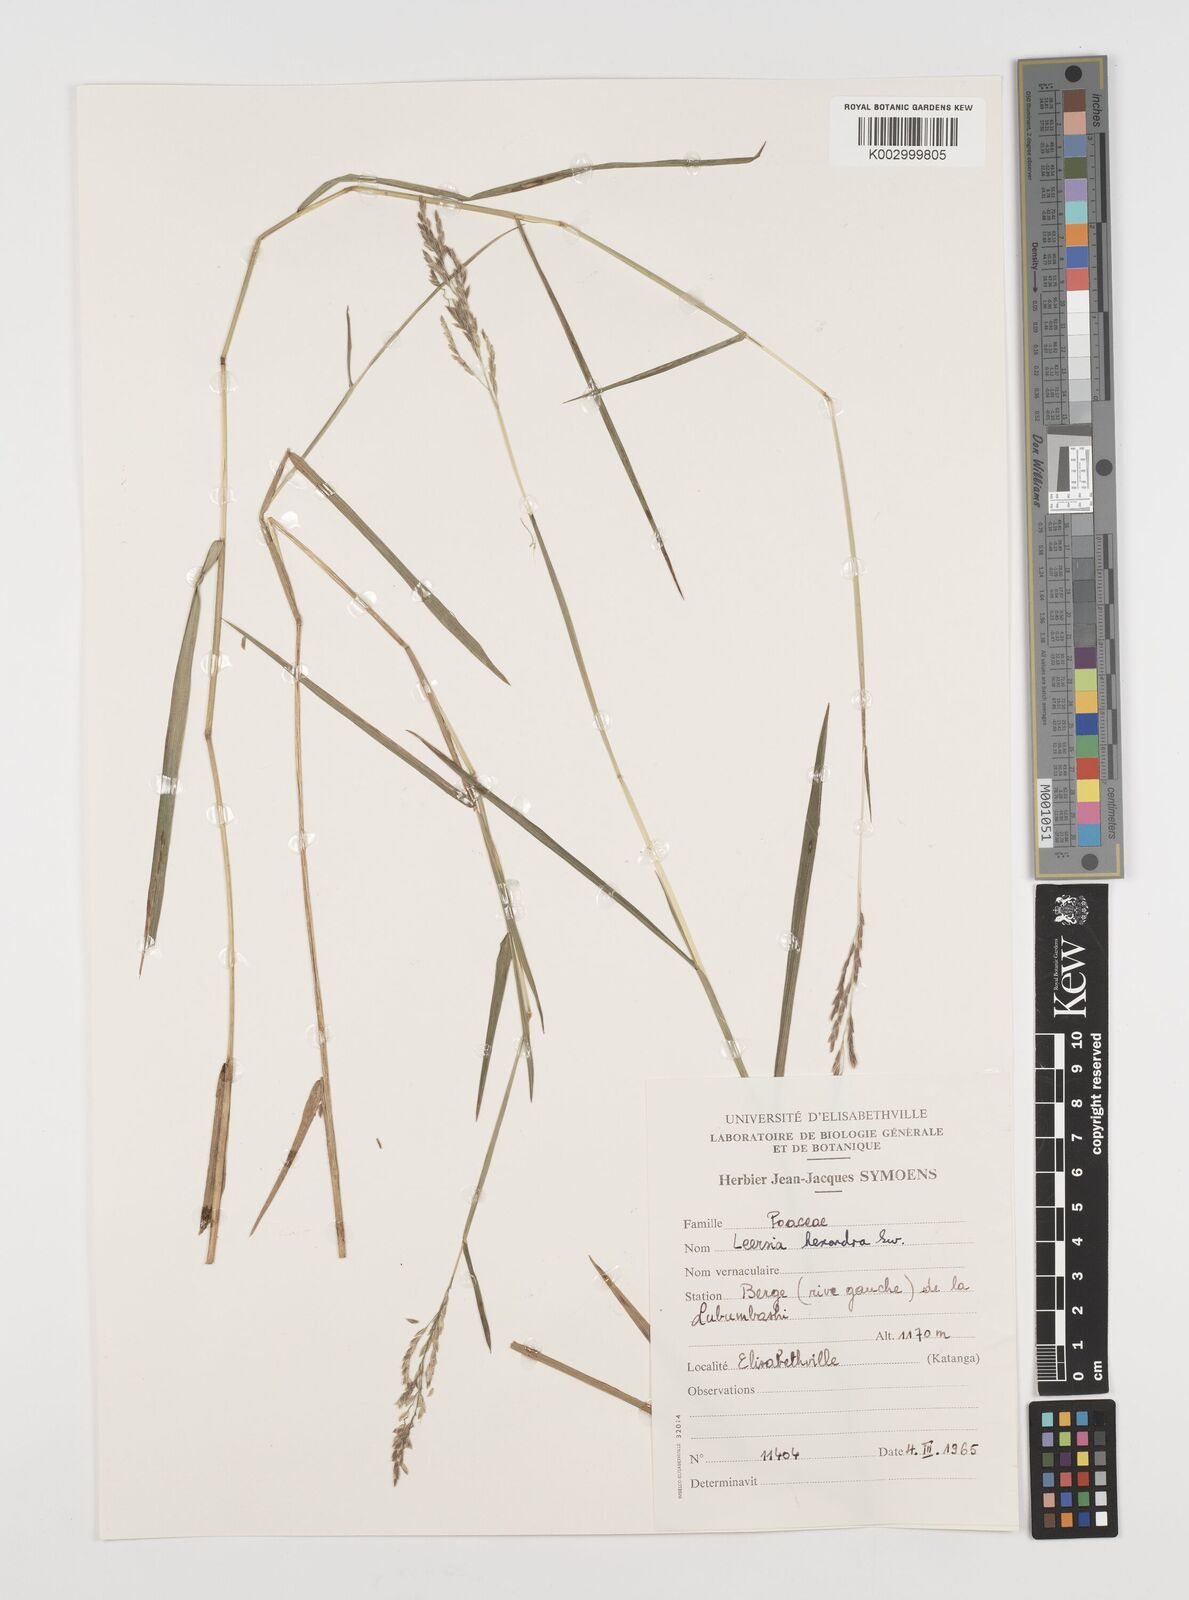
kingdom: Plantae
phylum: Tracheophyta
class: Liliopsida
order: Poales
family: Poaceae
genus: Leersia
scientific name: Leersia hexandra
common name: Southern cut grass
